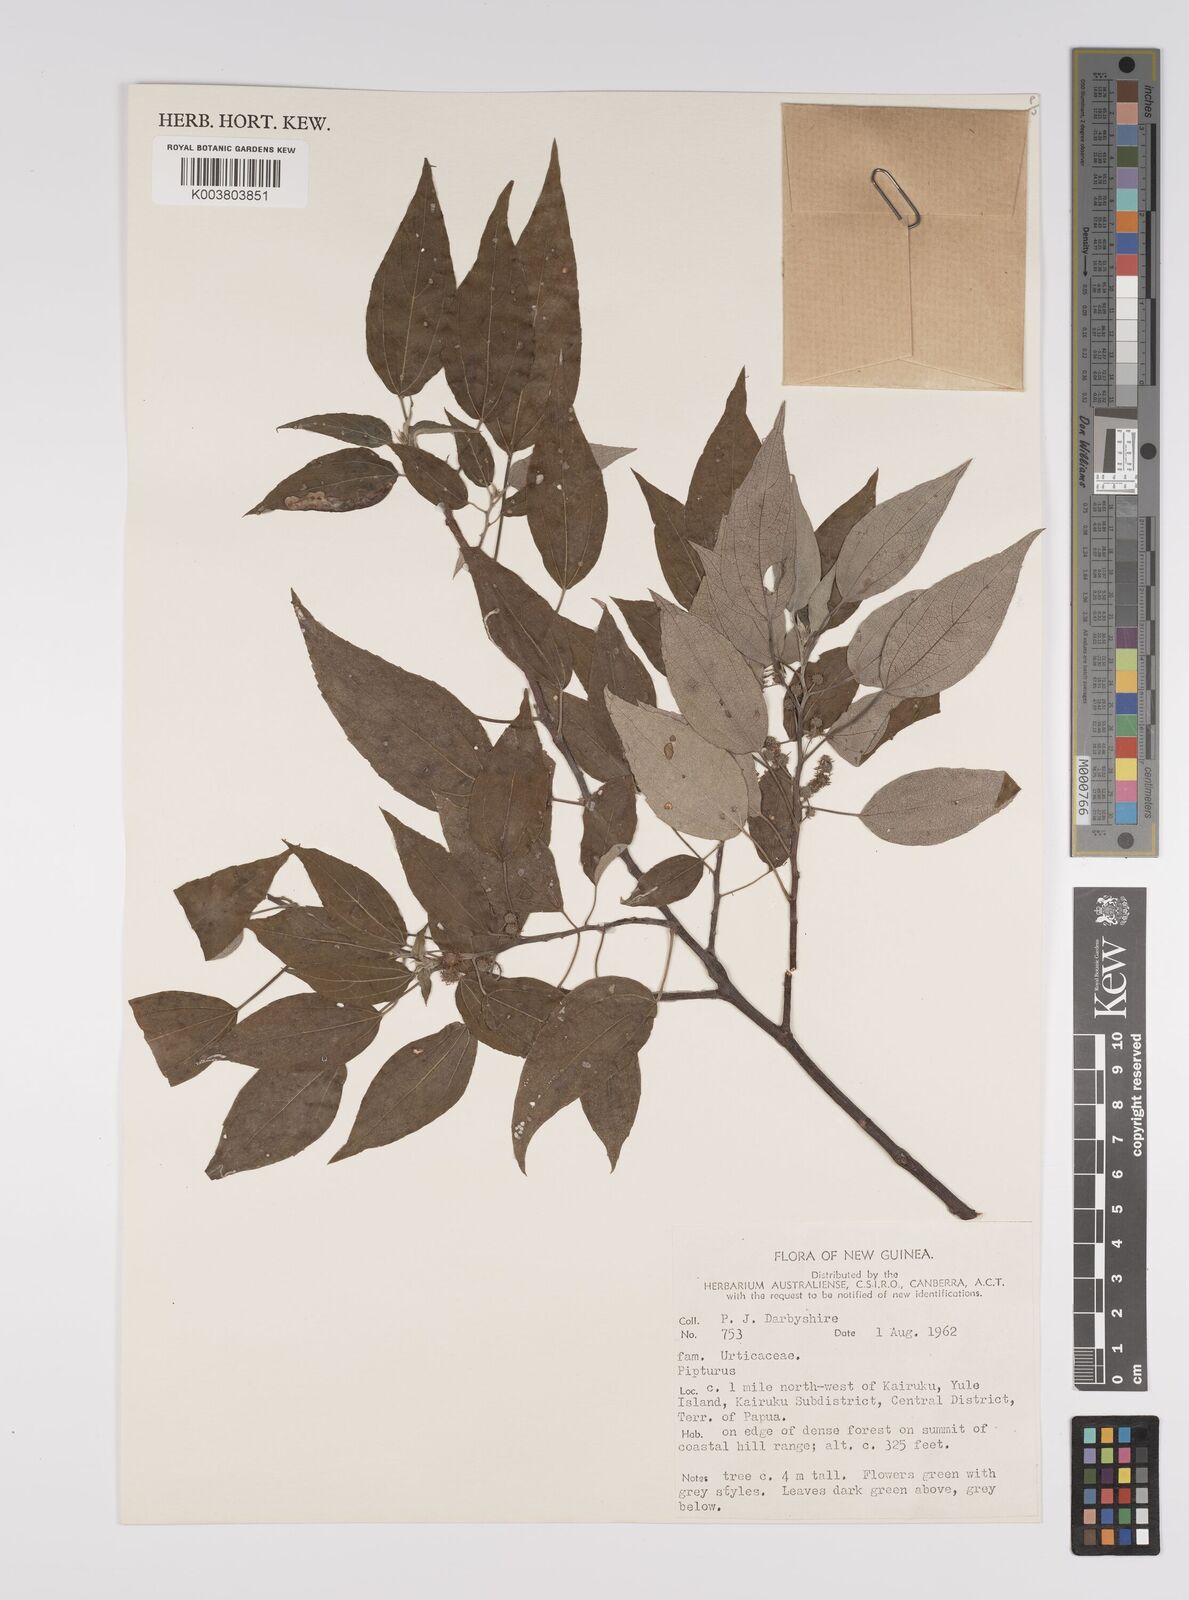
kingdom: Plantae
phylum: Tracheophyta
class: Magnoliopsida
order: Rosales
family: Urticaceae
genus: Pipturus
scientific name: Pipturus argenteus
